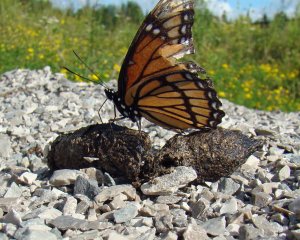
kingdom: Animalia
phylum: Arthropoda
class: Insecta
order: Lepidoptera
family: Nymphalidae
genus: Limenitis
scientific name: Limenitis archippus
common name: Viceroy
